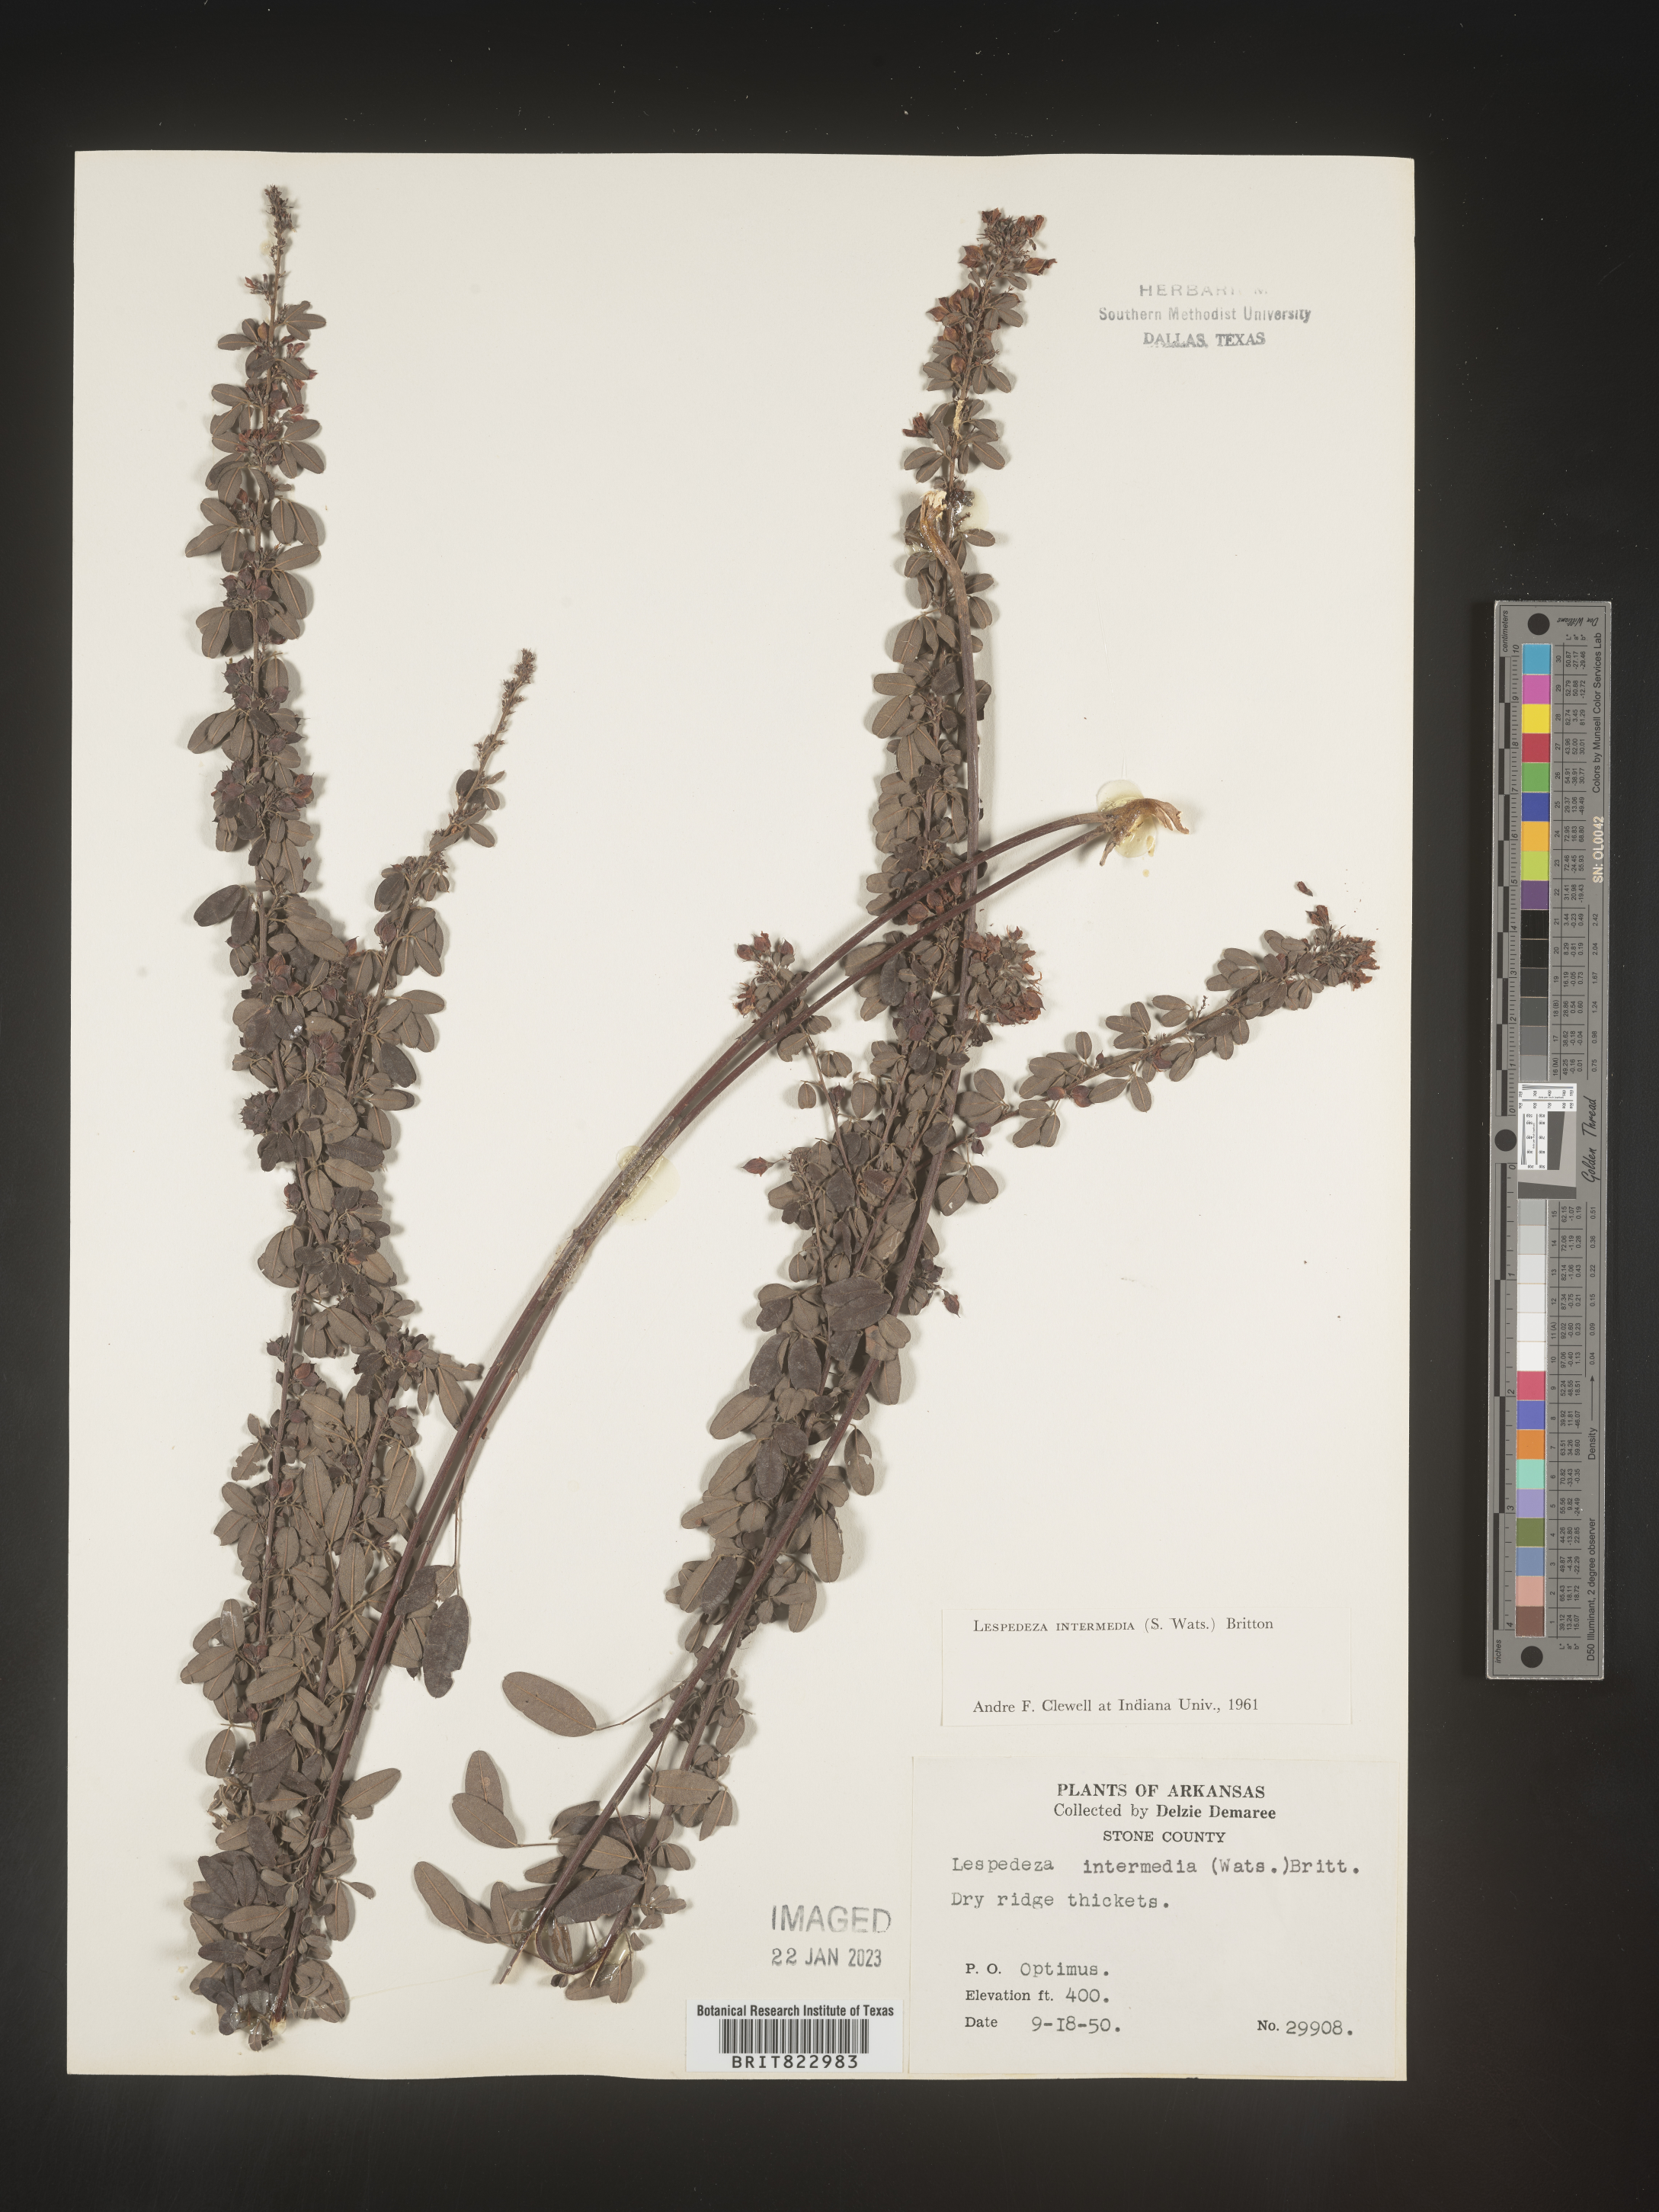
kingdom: Plantae
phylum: Tracheophyta
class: Magnoliopsida
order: Fabales
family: Fabaceae
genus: Lespedeza
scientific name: Lespedeza
